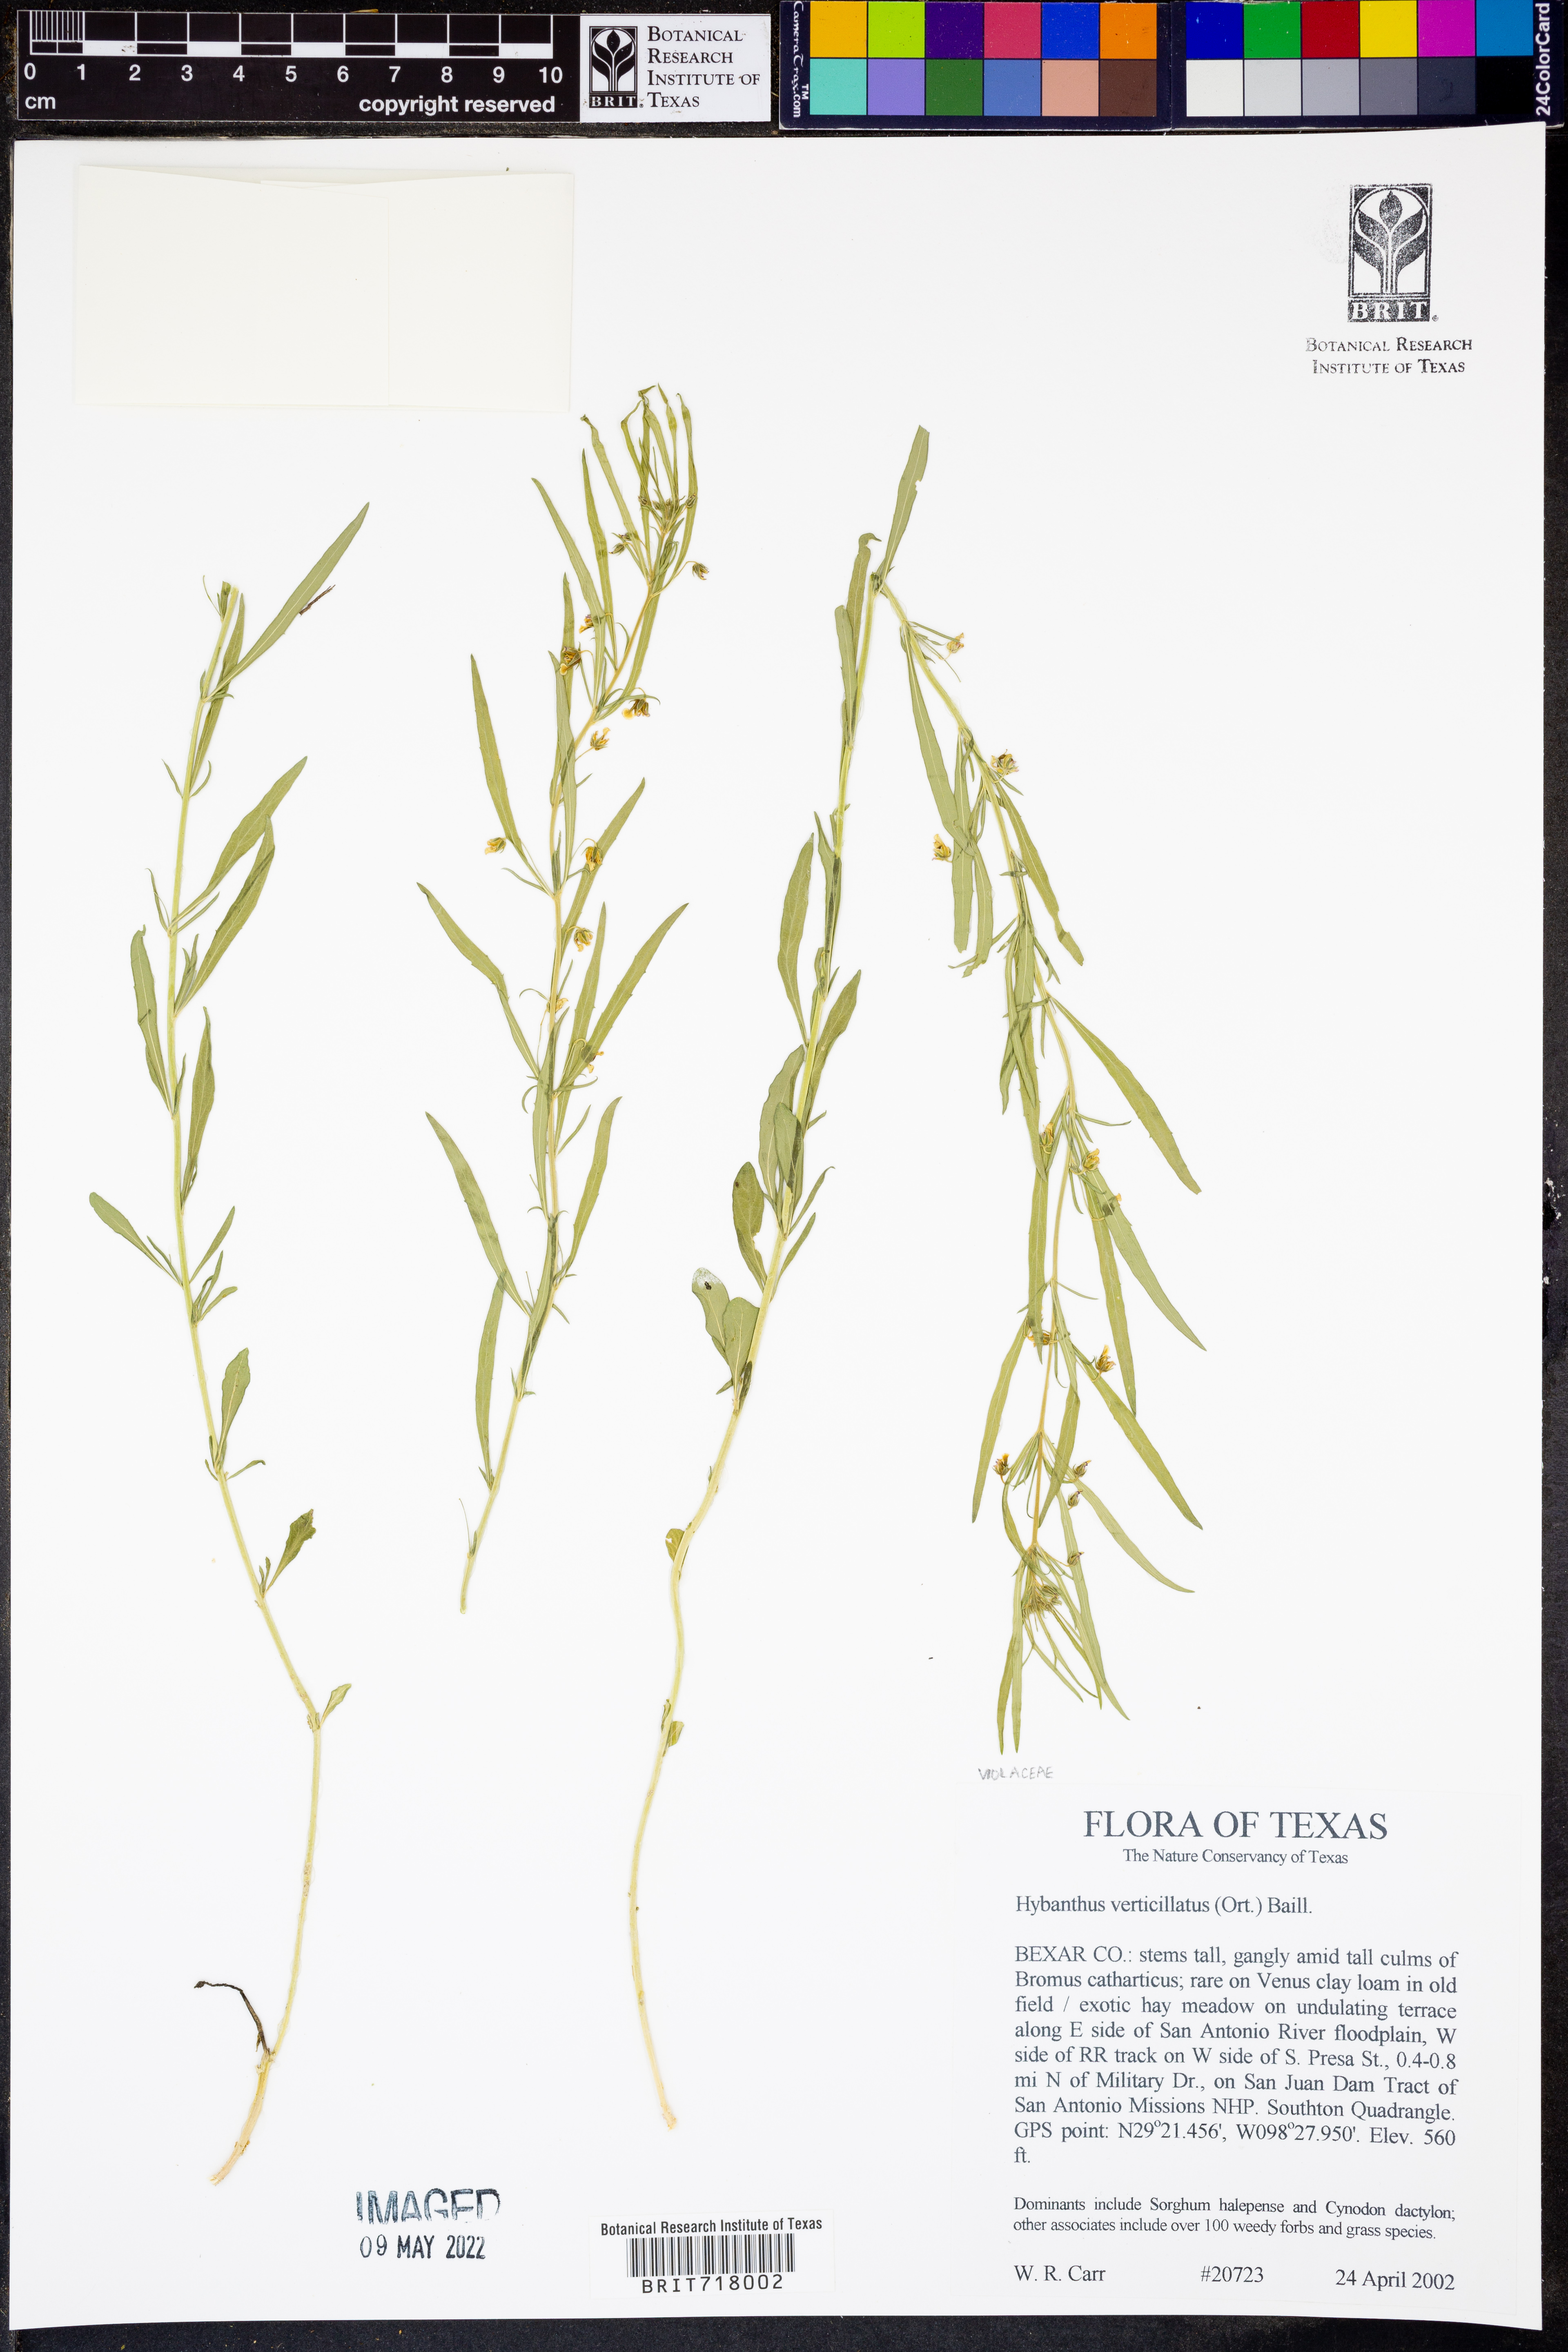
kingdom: Plantae
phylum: Tracheophyta
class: Magnoliopsida
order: Malpighiales
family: Violaceae
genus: Pombalia
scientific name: Pombalia verticillata
